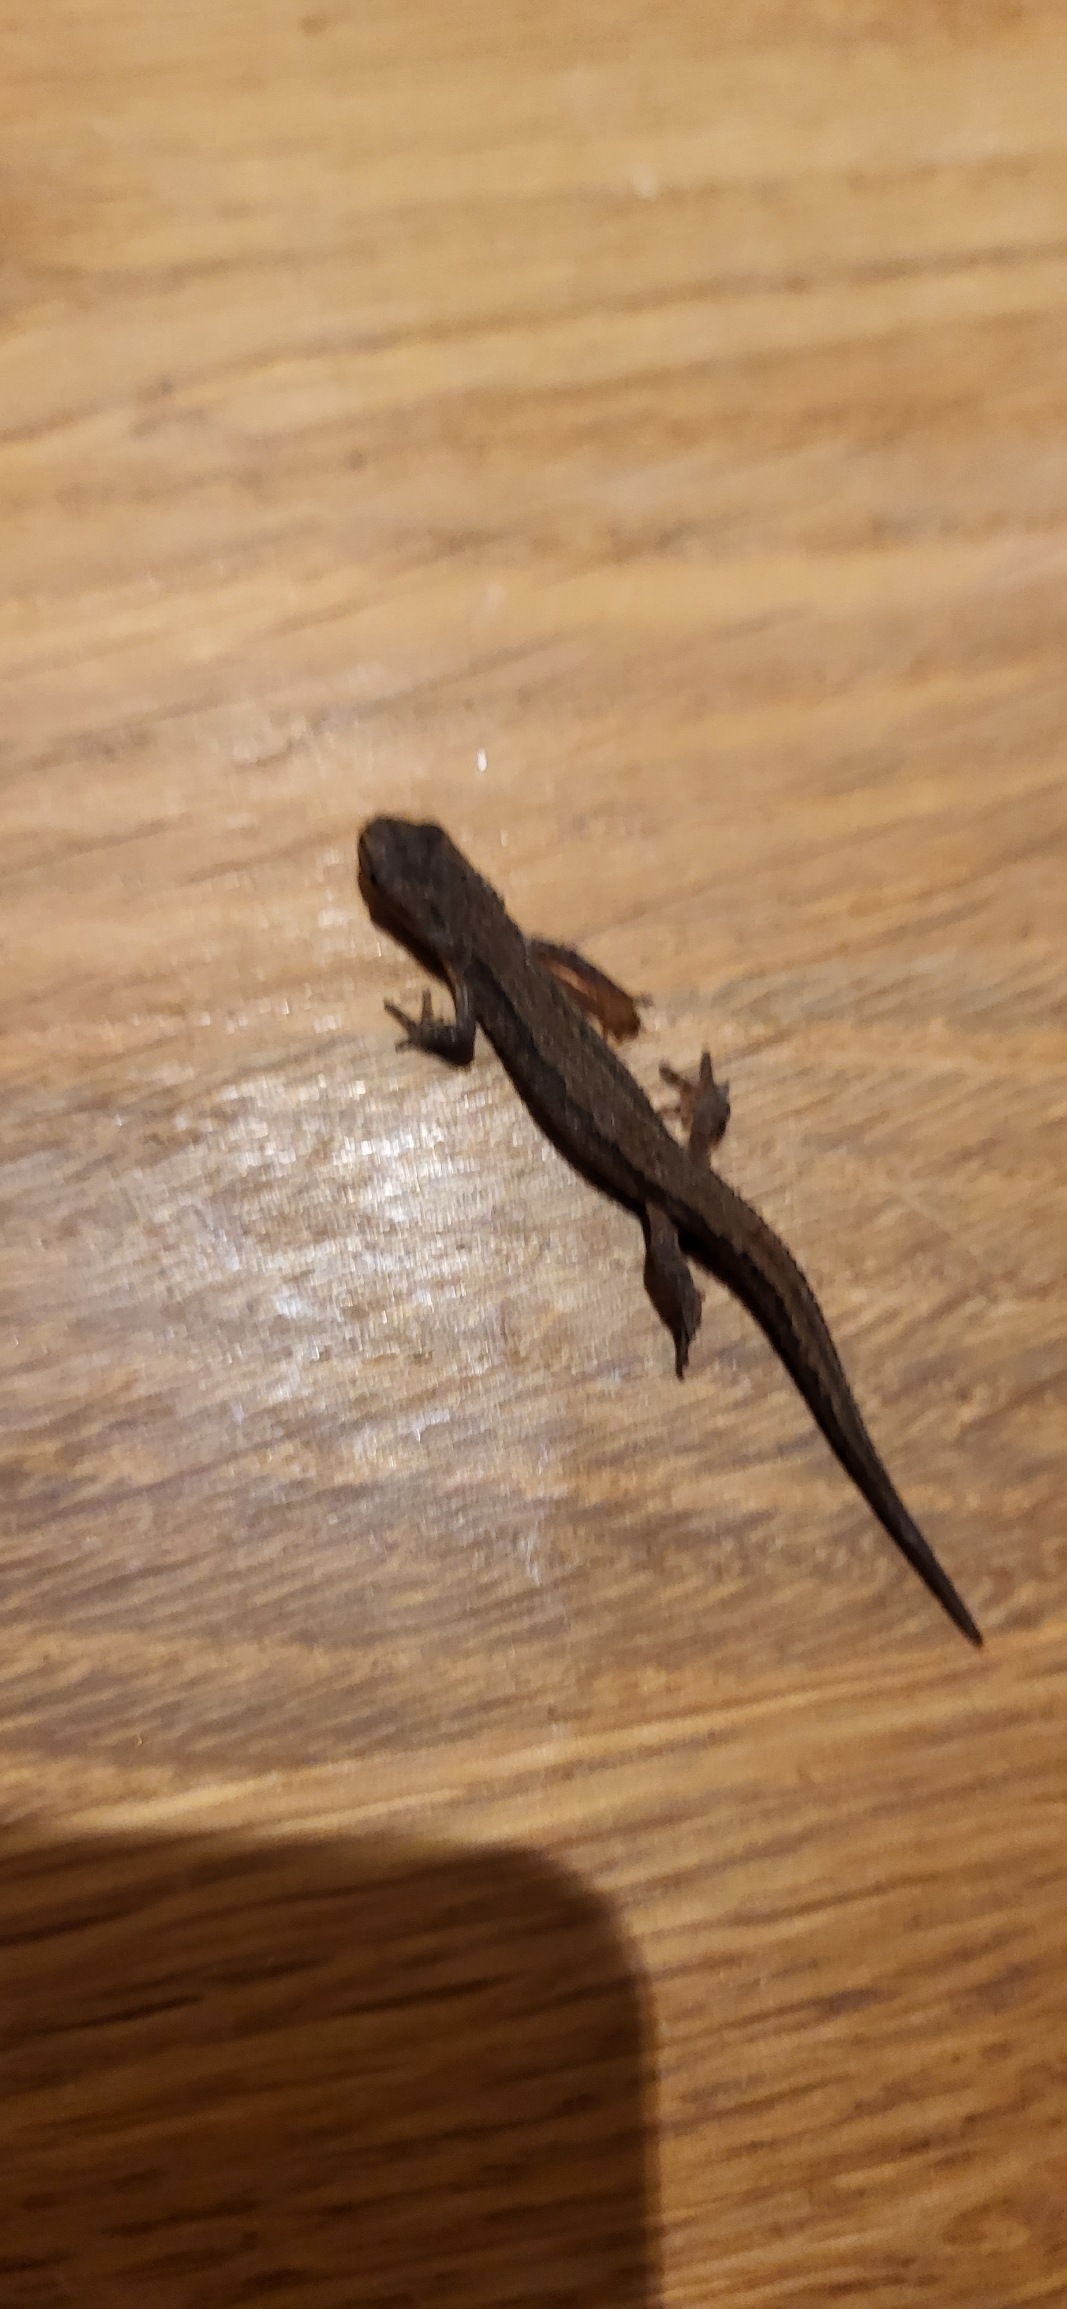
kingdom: Animalia
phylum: Chordata
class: Amphibia
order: Caudata
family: Salamandridae
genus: Lissotriton
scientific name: Lissotriton vulgaris
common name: Lille vandsalamander
